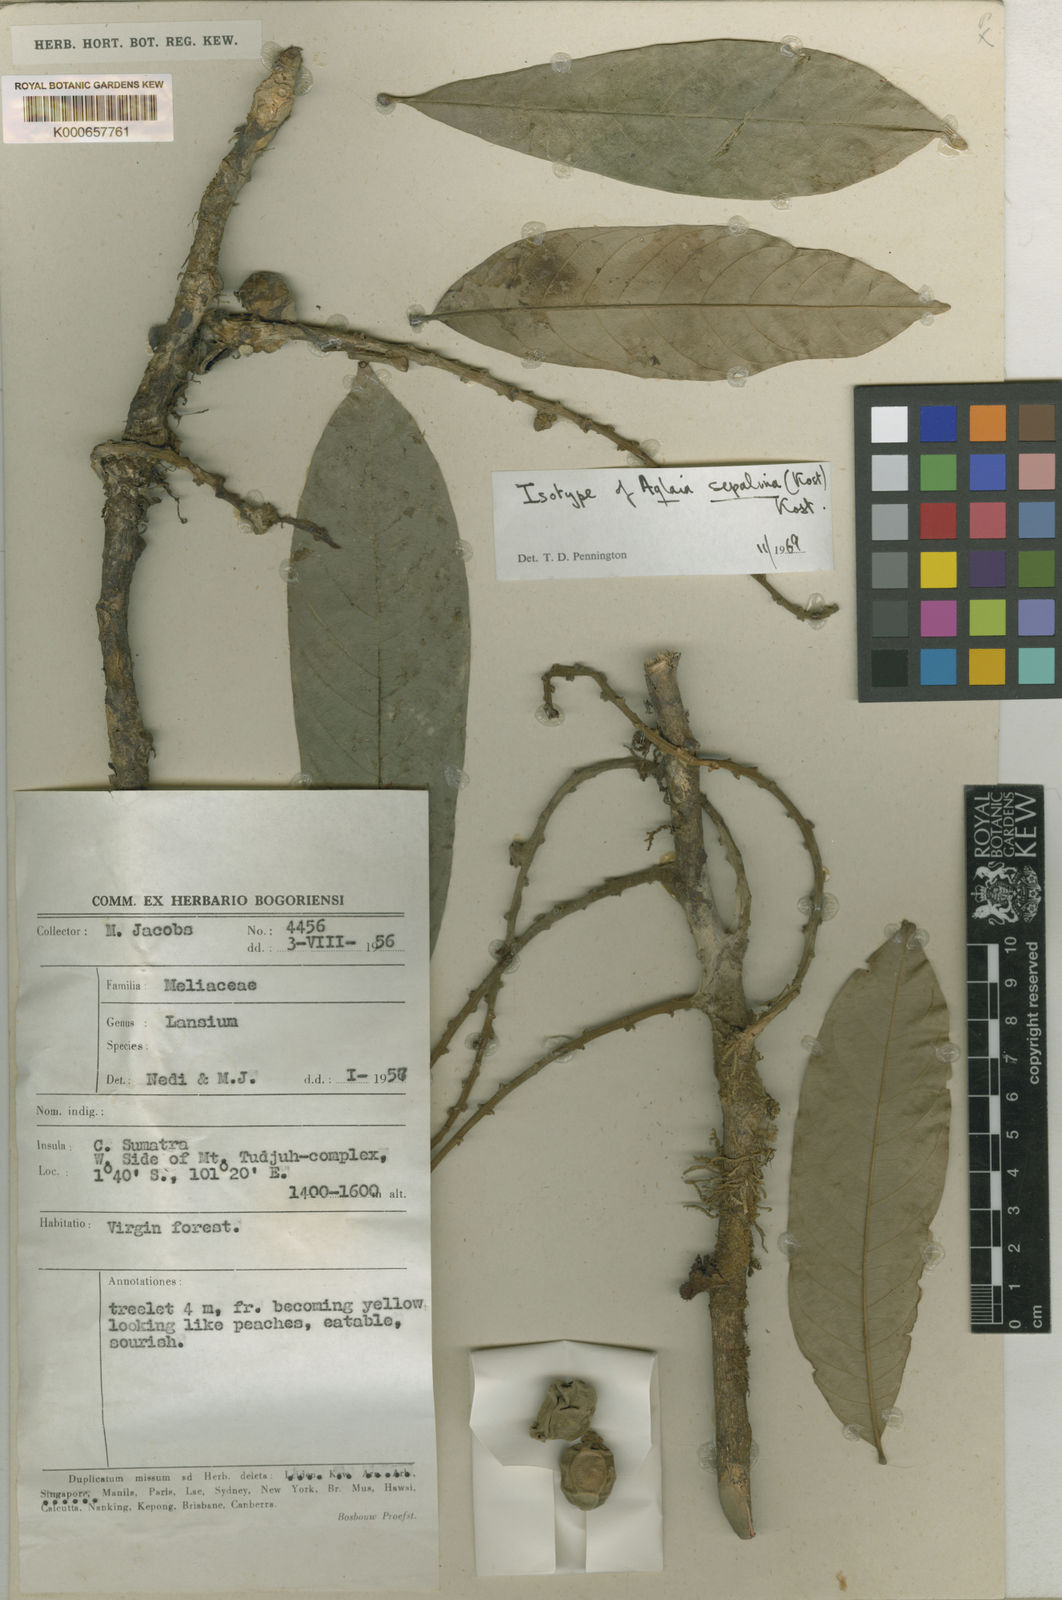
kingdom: Plantae
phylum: Tracheophyta
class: Magnoliopsida
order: Sapindales
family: Meliaceae
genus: Lansium
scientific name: Lansium
